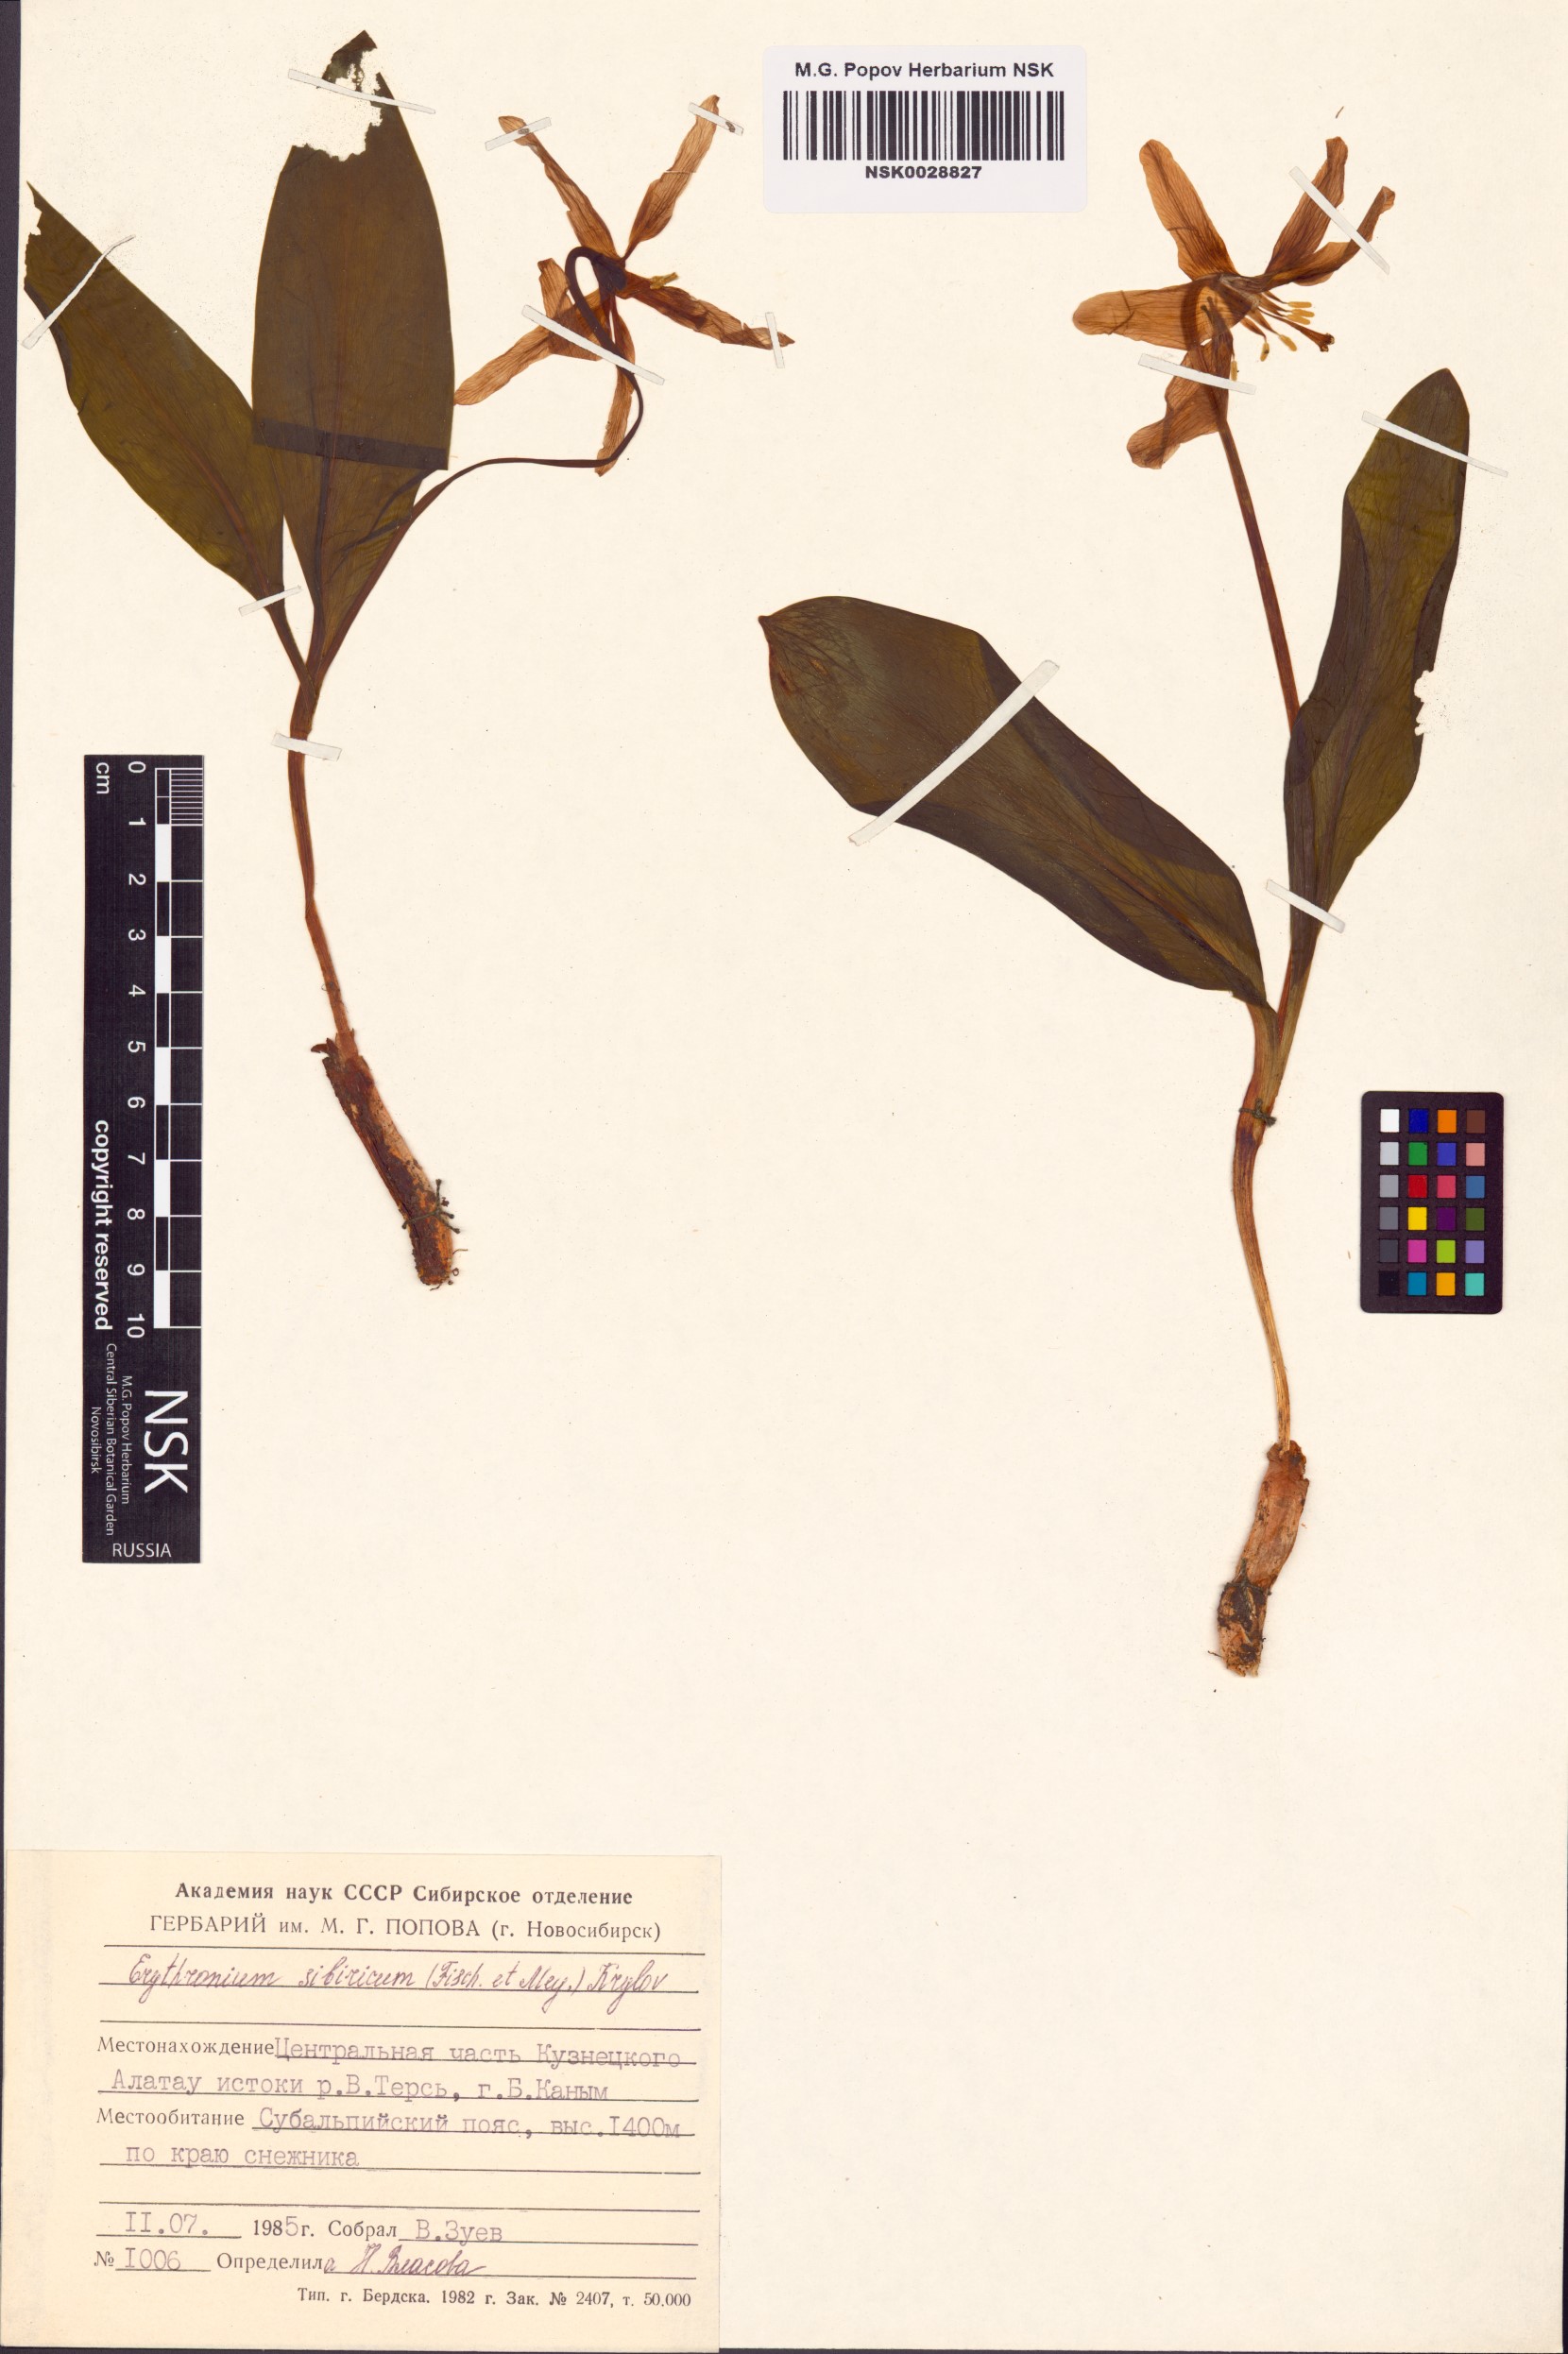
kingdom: Plantae
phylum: Tracheophyta
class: Liliopsida
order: Liliales
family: Liliaceae
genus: Erythronium
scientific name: Erythronium sibiricum
